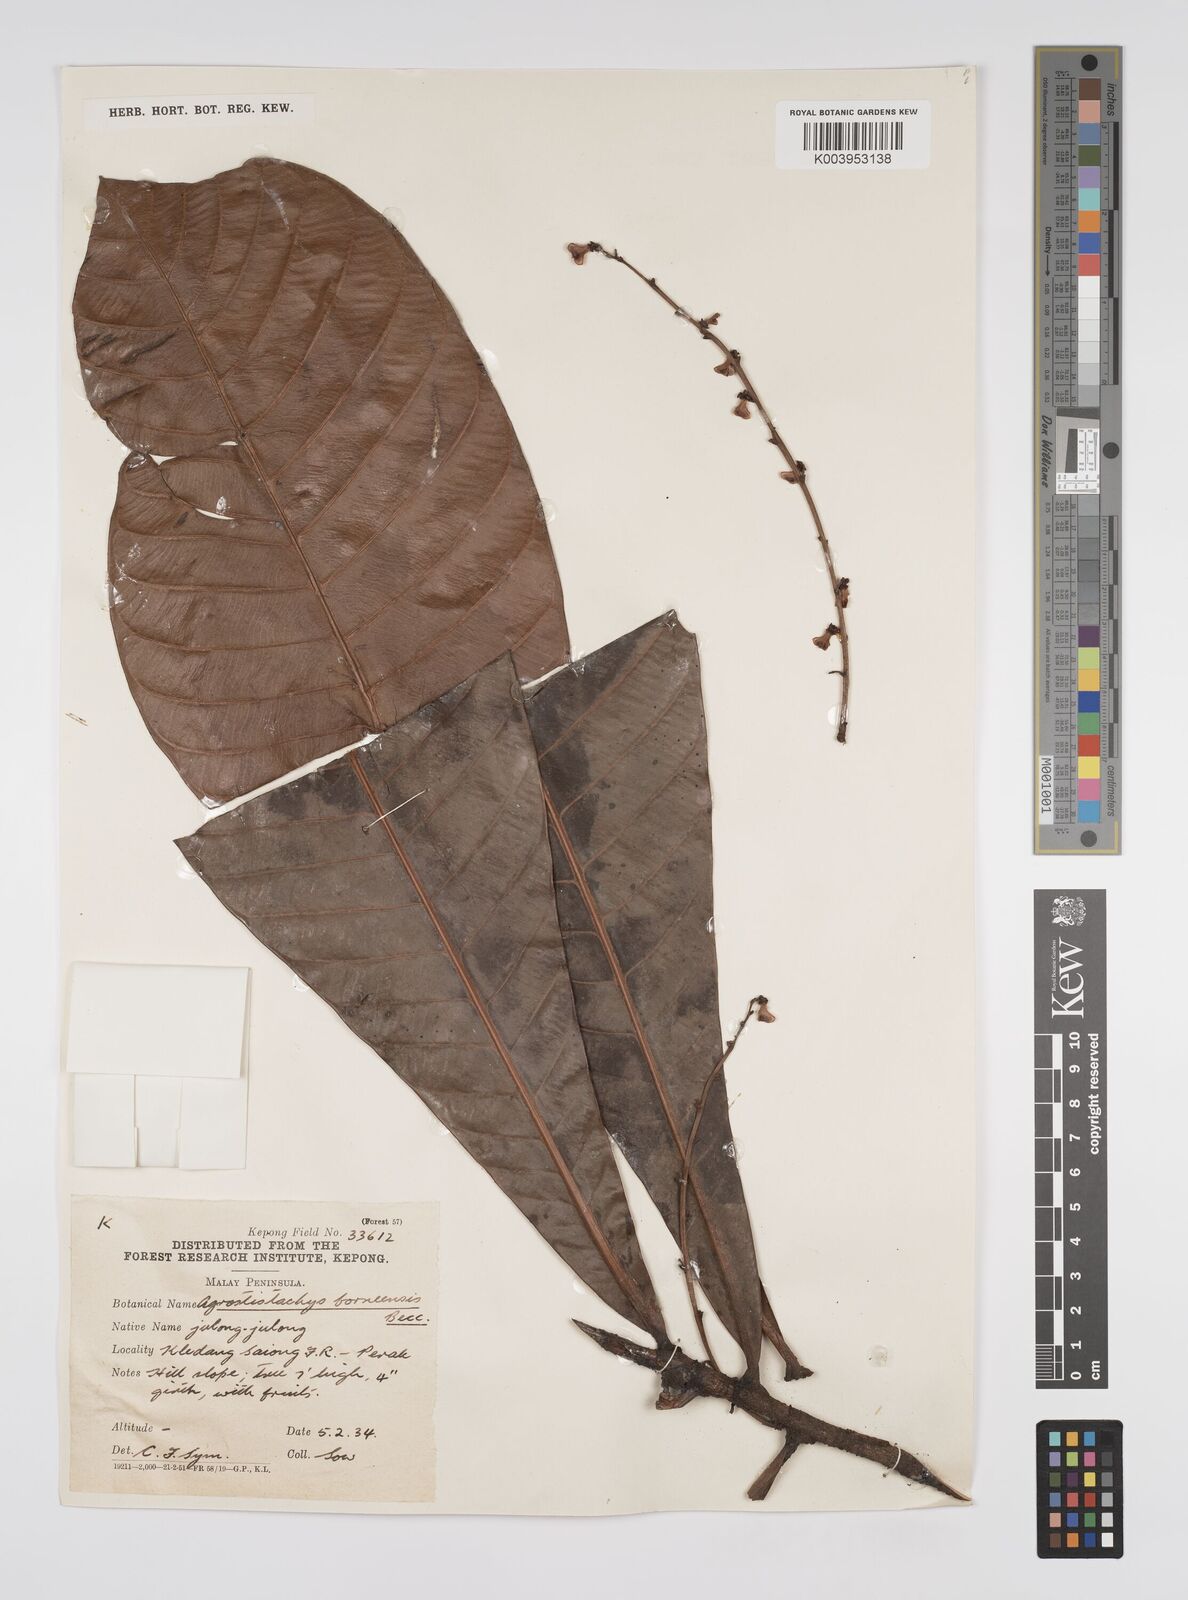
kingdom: Plantae
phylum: Tracheophyta
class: Magnoliopsida
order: Malpighiales
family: Euphorbiaceae
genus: Agrostistachys
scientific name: Agrostistachys borneensis
